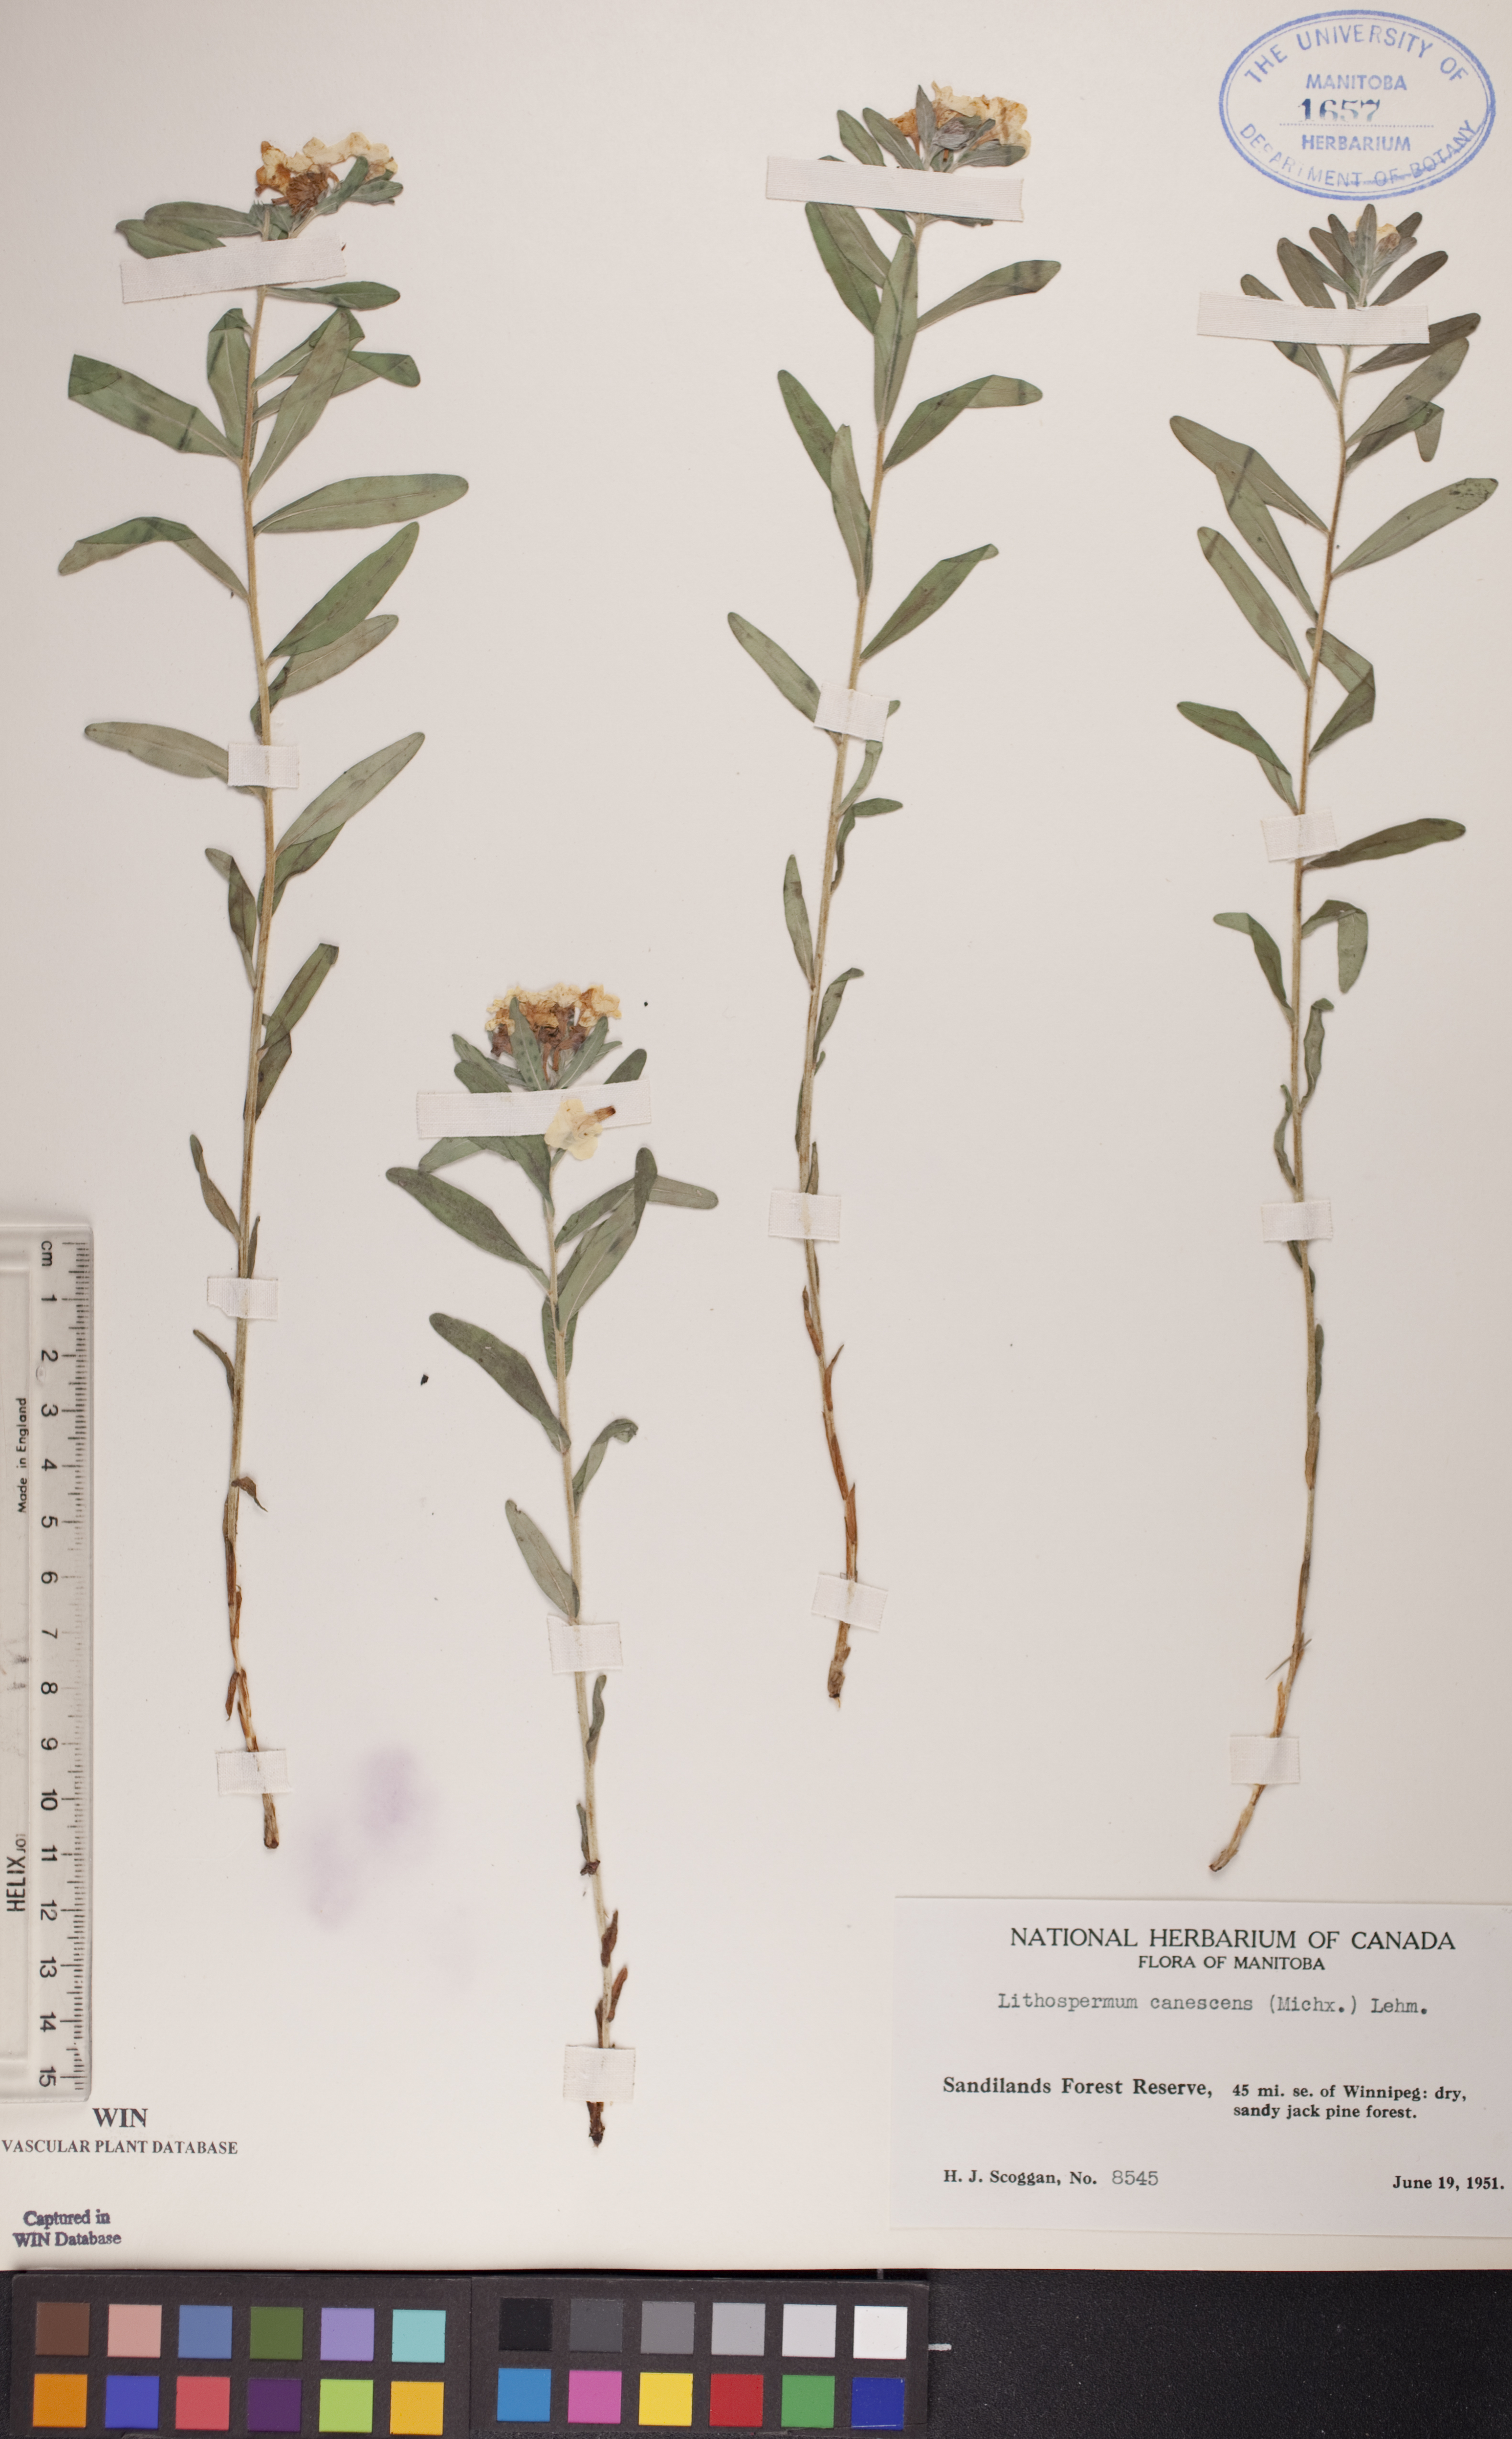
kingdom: Plantae
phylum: Tracheophyta
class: Magnoliopsida
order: Boraginales
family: Boraginaceae
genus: Lithospermum
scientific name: Lithospermum canescens
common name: Hoary puccoon
